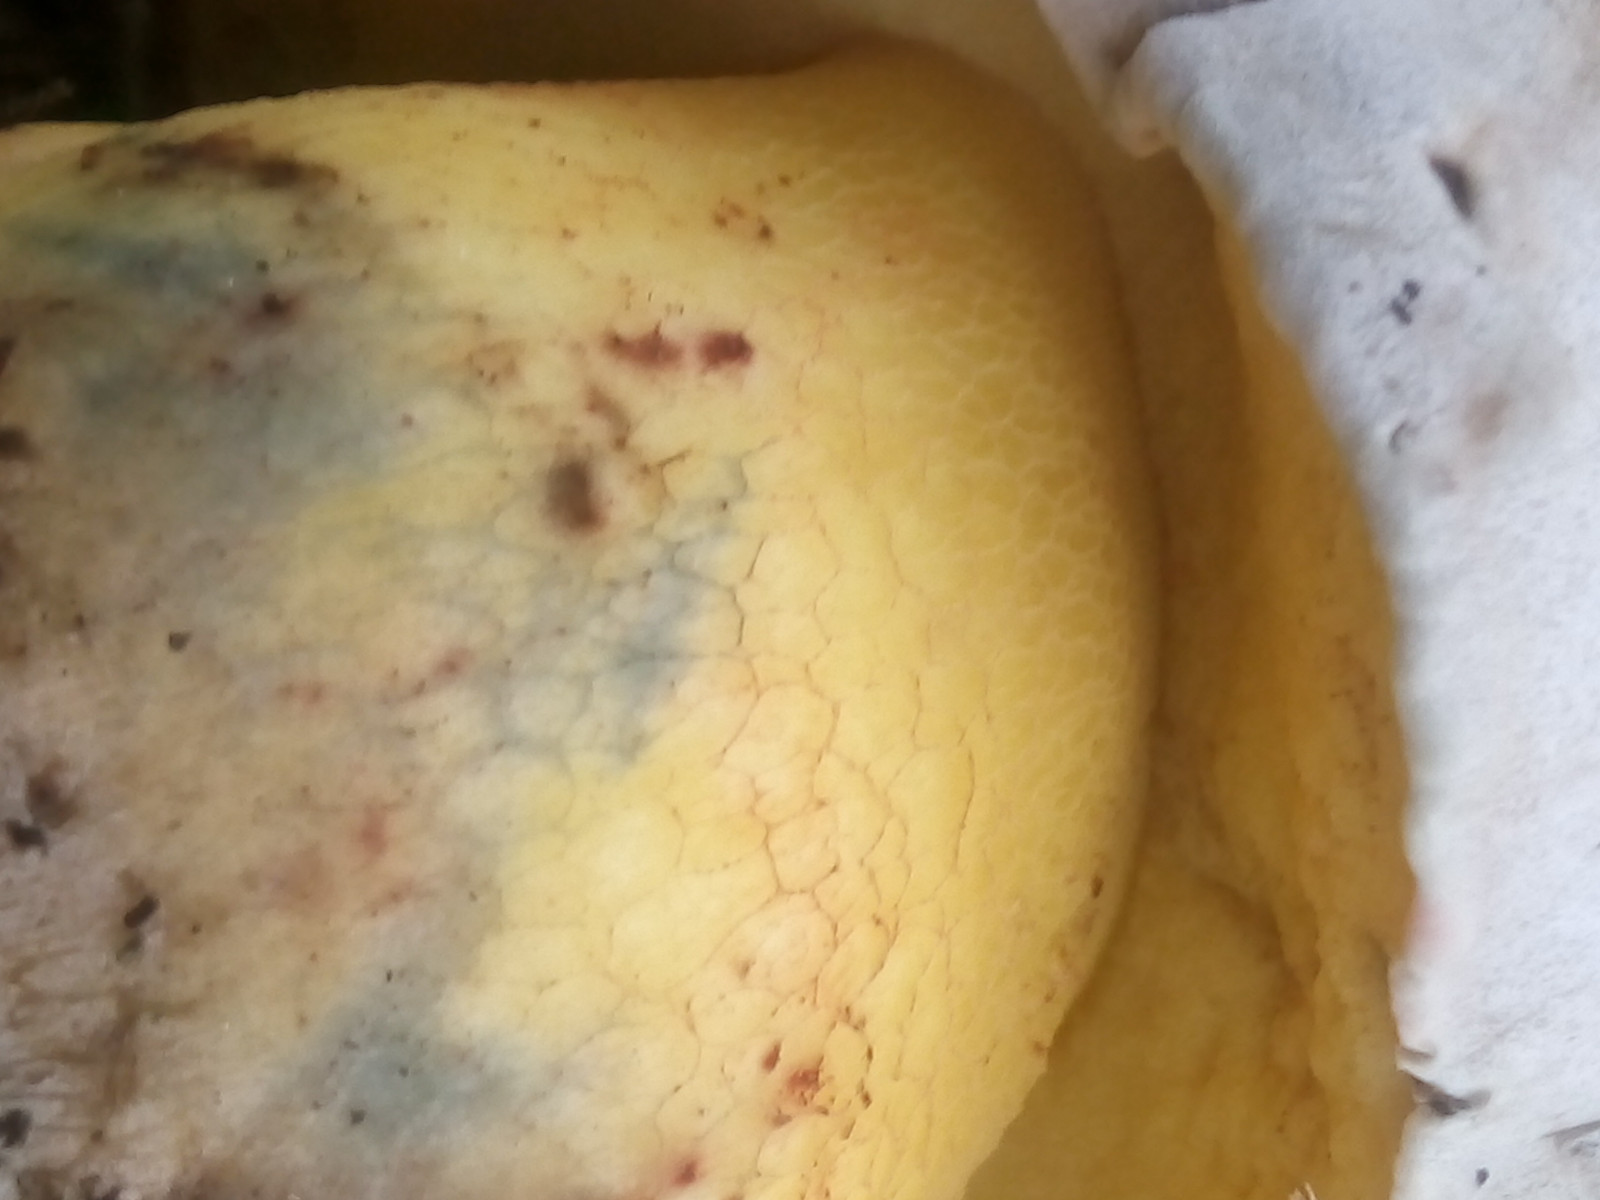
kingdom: Fungi
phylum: Basidiomycota
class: Agaricomycetes
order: Boletales
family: Boletaceae
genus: Caloboletus
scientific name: Caloboletus radicans
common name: rod-rørhat
